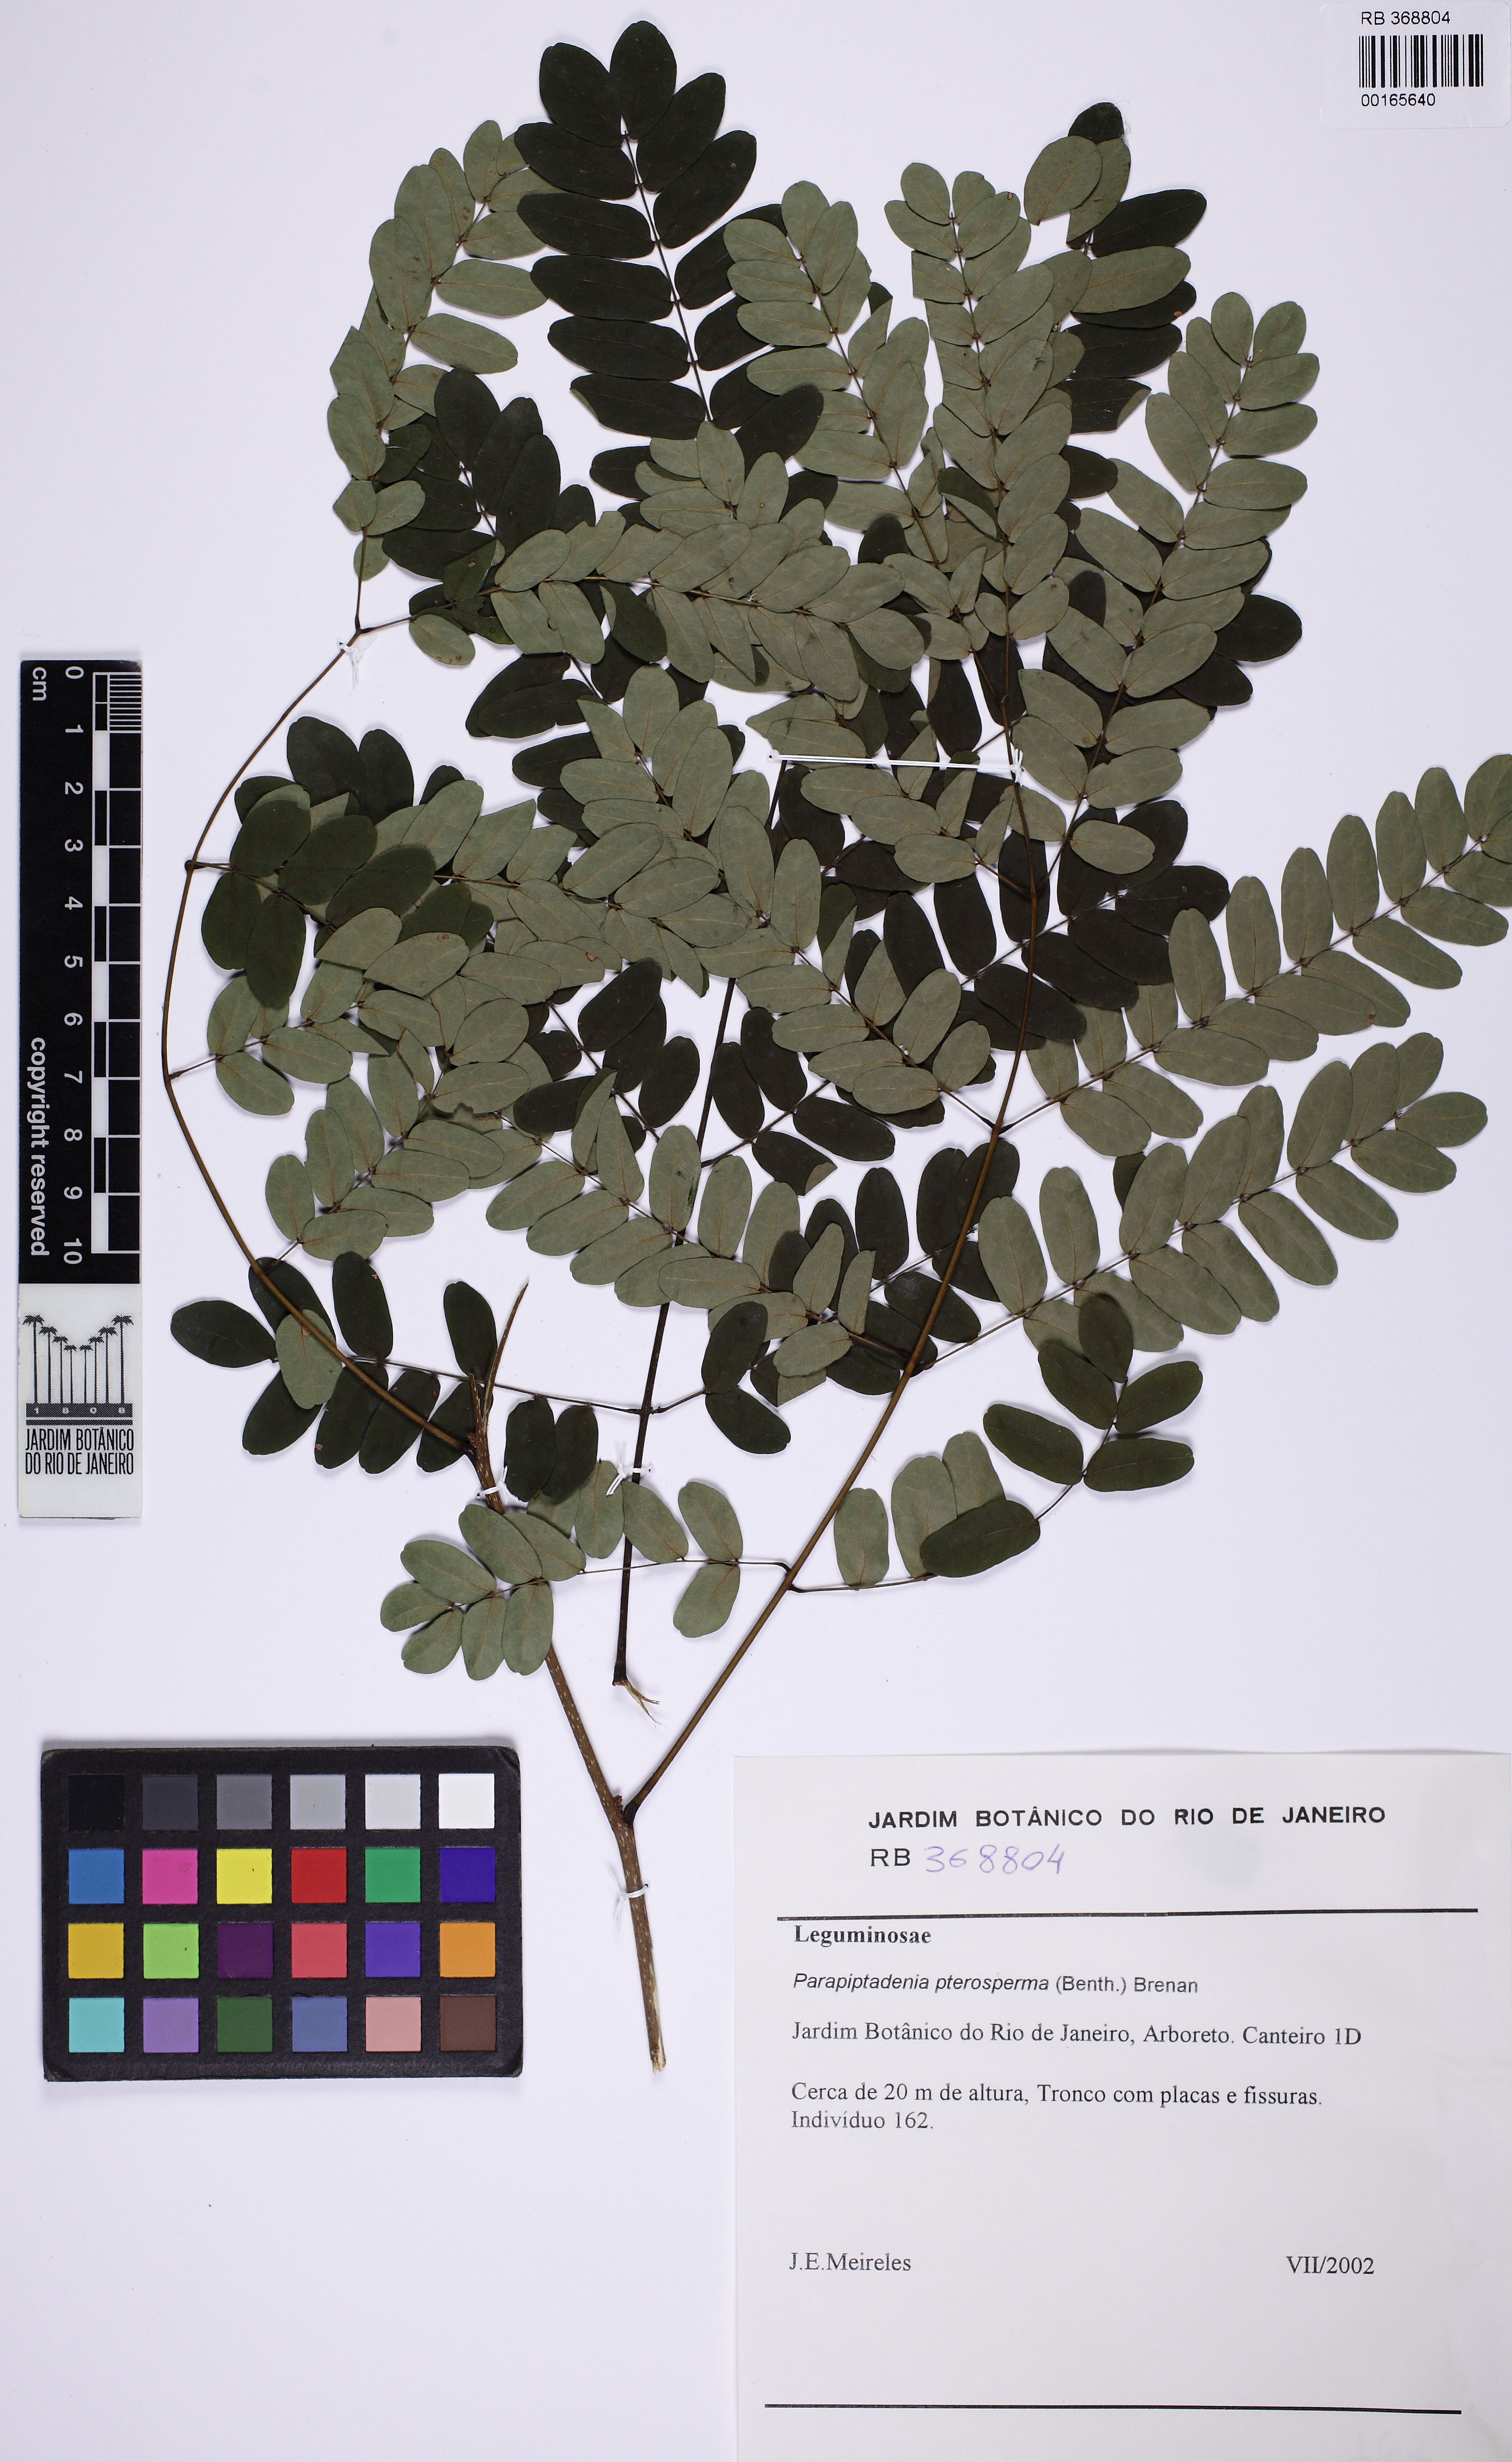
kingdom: Plantae
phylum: Tracheophyta
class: Magnoliopsida
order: Fabales
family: Fabaceae
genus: Parapiptadenia
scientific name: Parapiptadenia pterosperma
